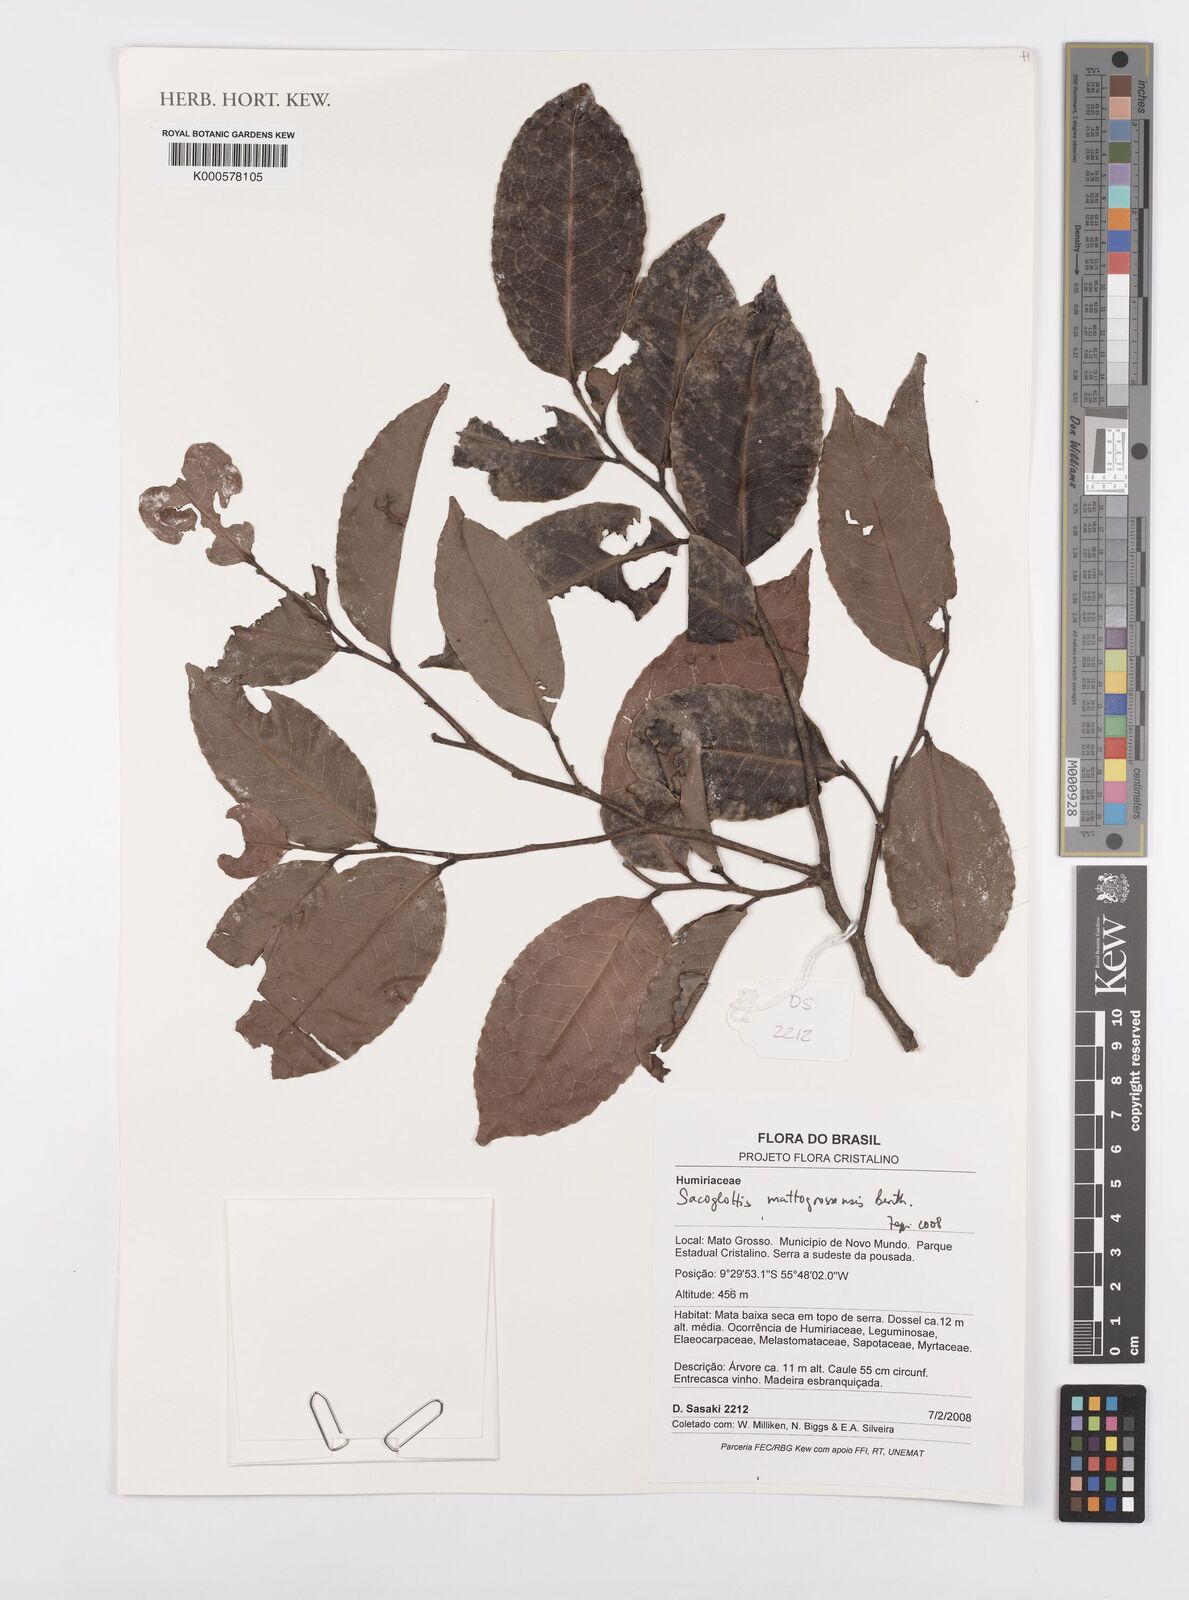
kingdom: Plantae
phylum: Tracheophyta
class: Magnoliopsida
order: Malpighiales
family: Humiriaceae
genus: Sacoglottis
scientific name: Sacoglottis
